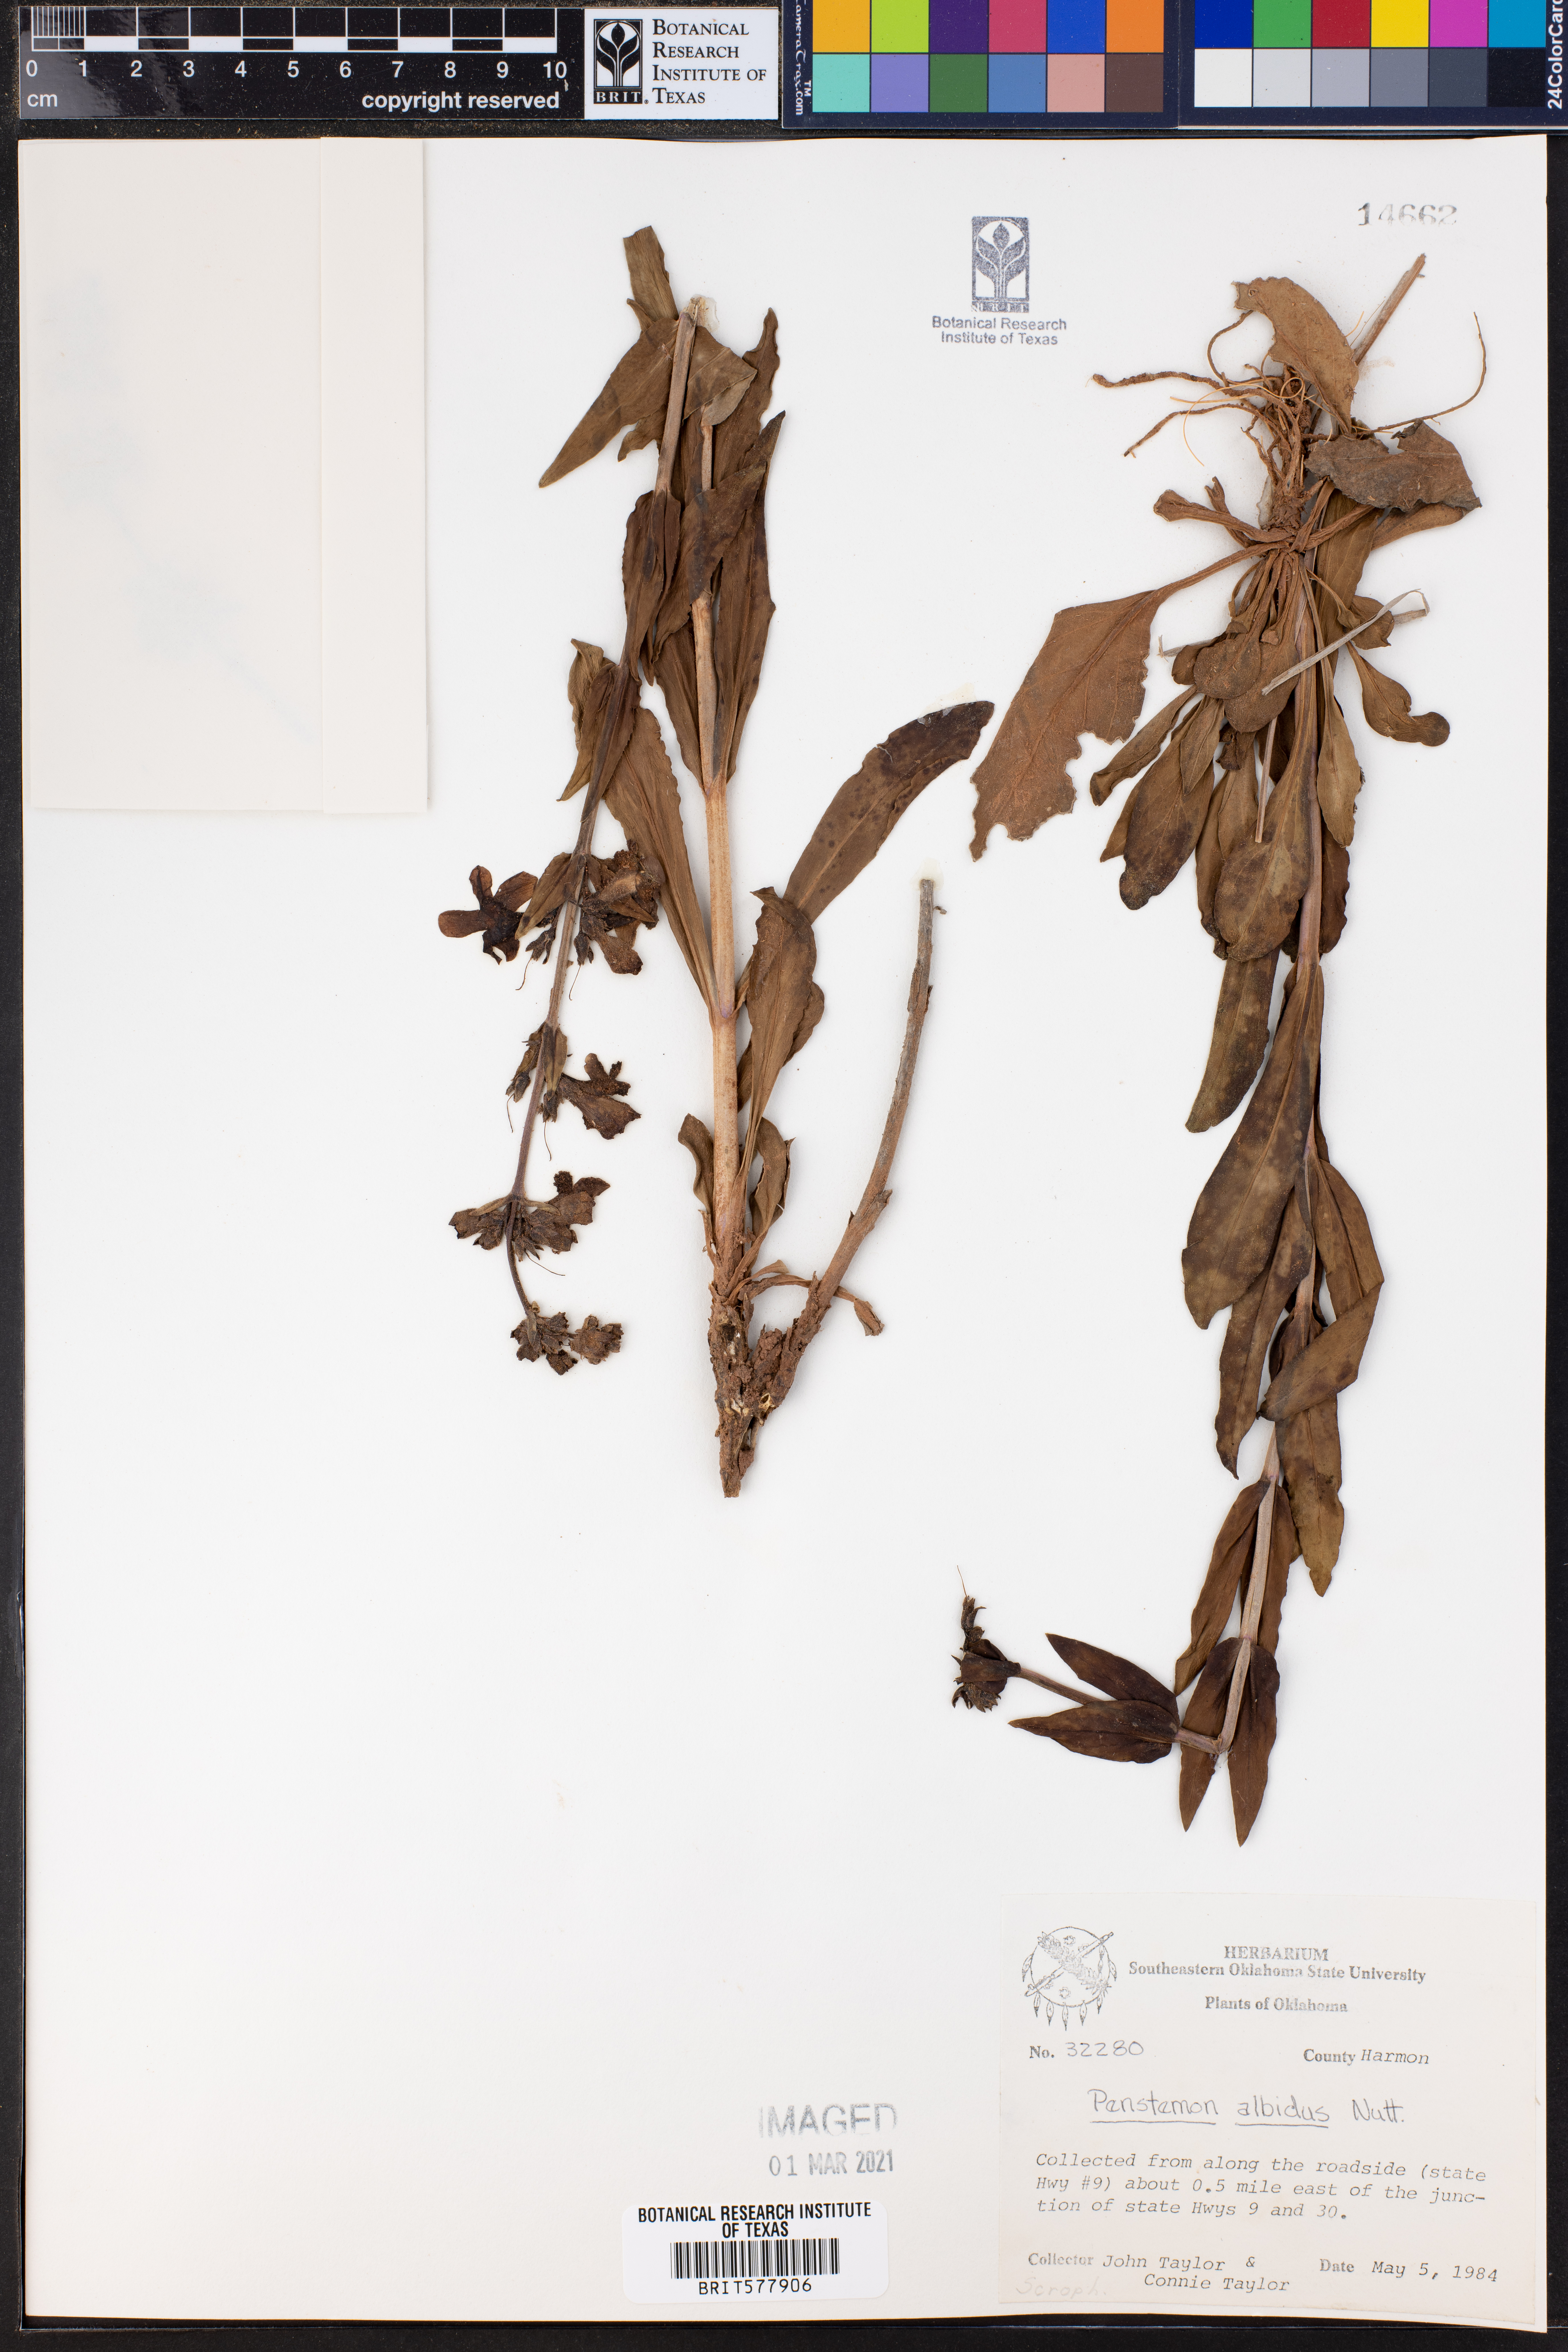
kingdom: Plantae
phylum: Tracheophyta
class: Magnoliopsida
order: Lamiales
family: Plantaginaceae
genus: Penstemon
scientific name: Penstemon albidus
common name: White beardtongue
